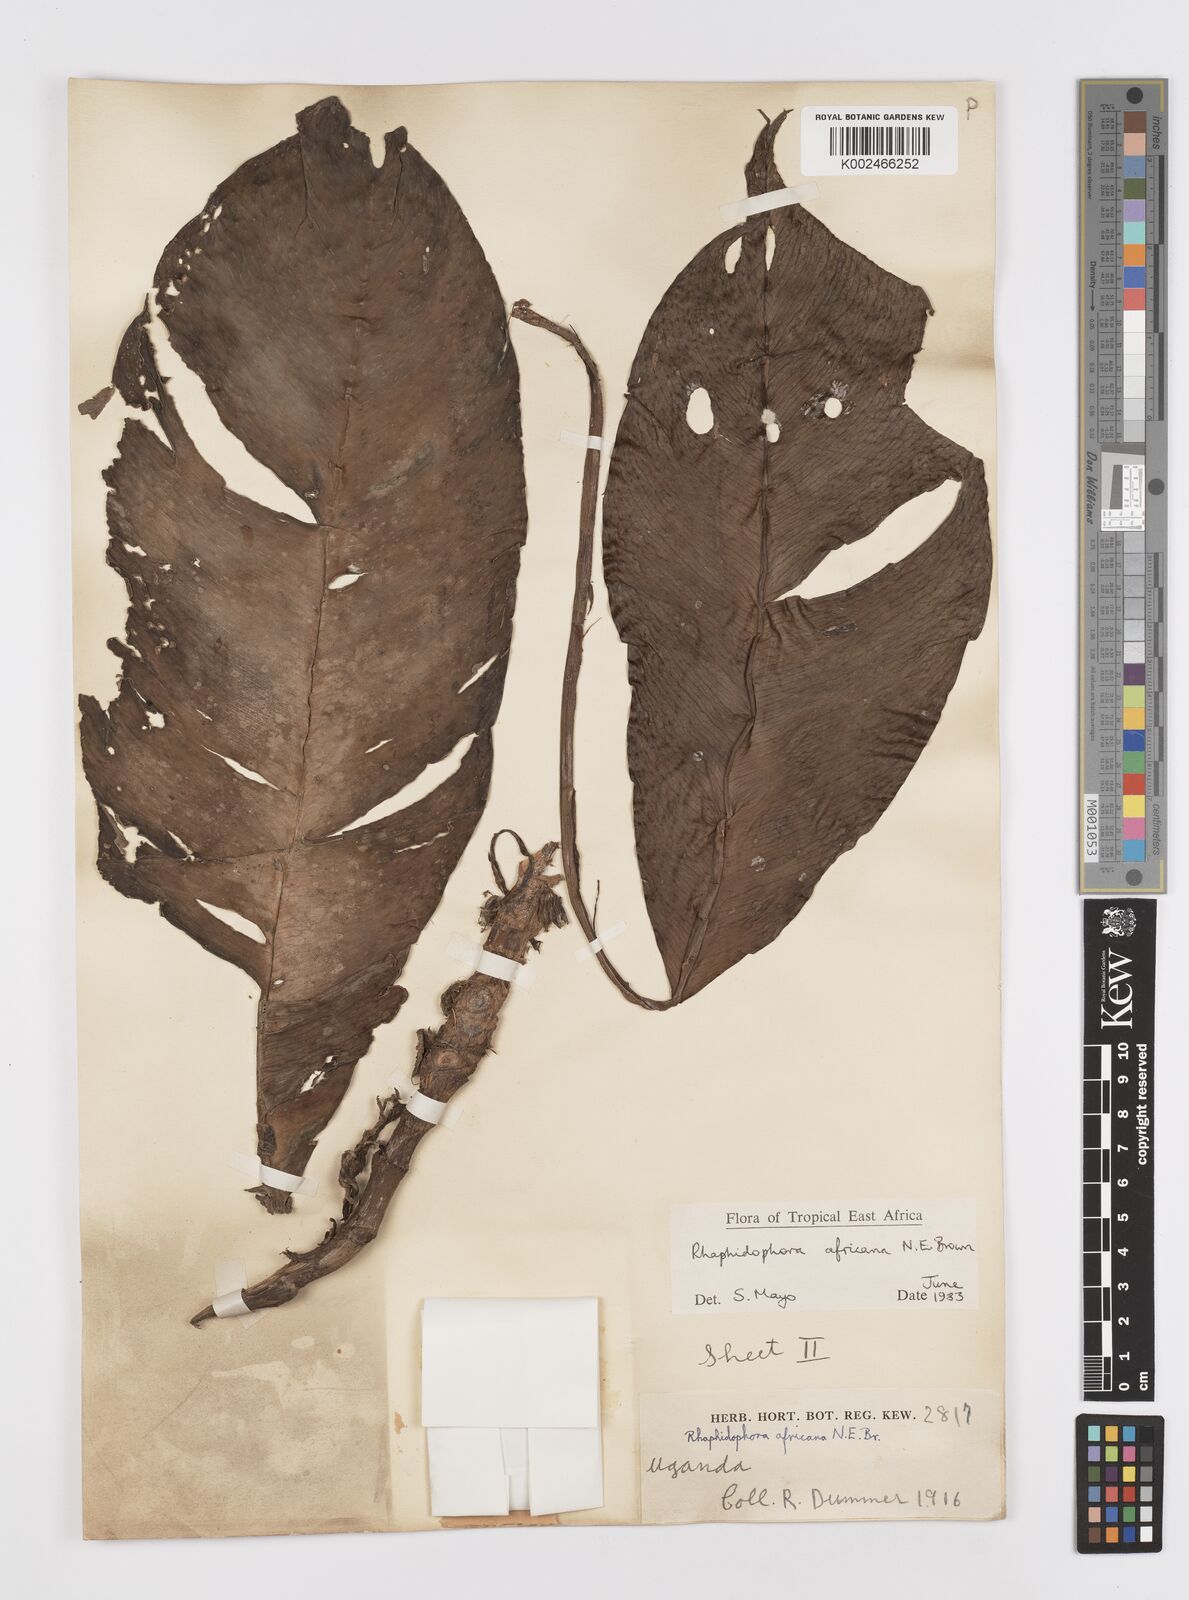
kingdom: Plantae
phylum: Tracheophyta
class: Liliopsida
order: Alismatales
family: Araceae
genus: Rhaphidophora
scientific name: Rhaphidophora africana
